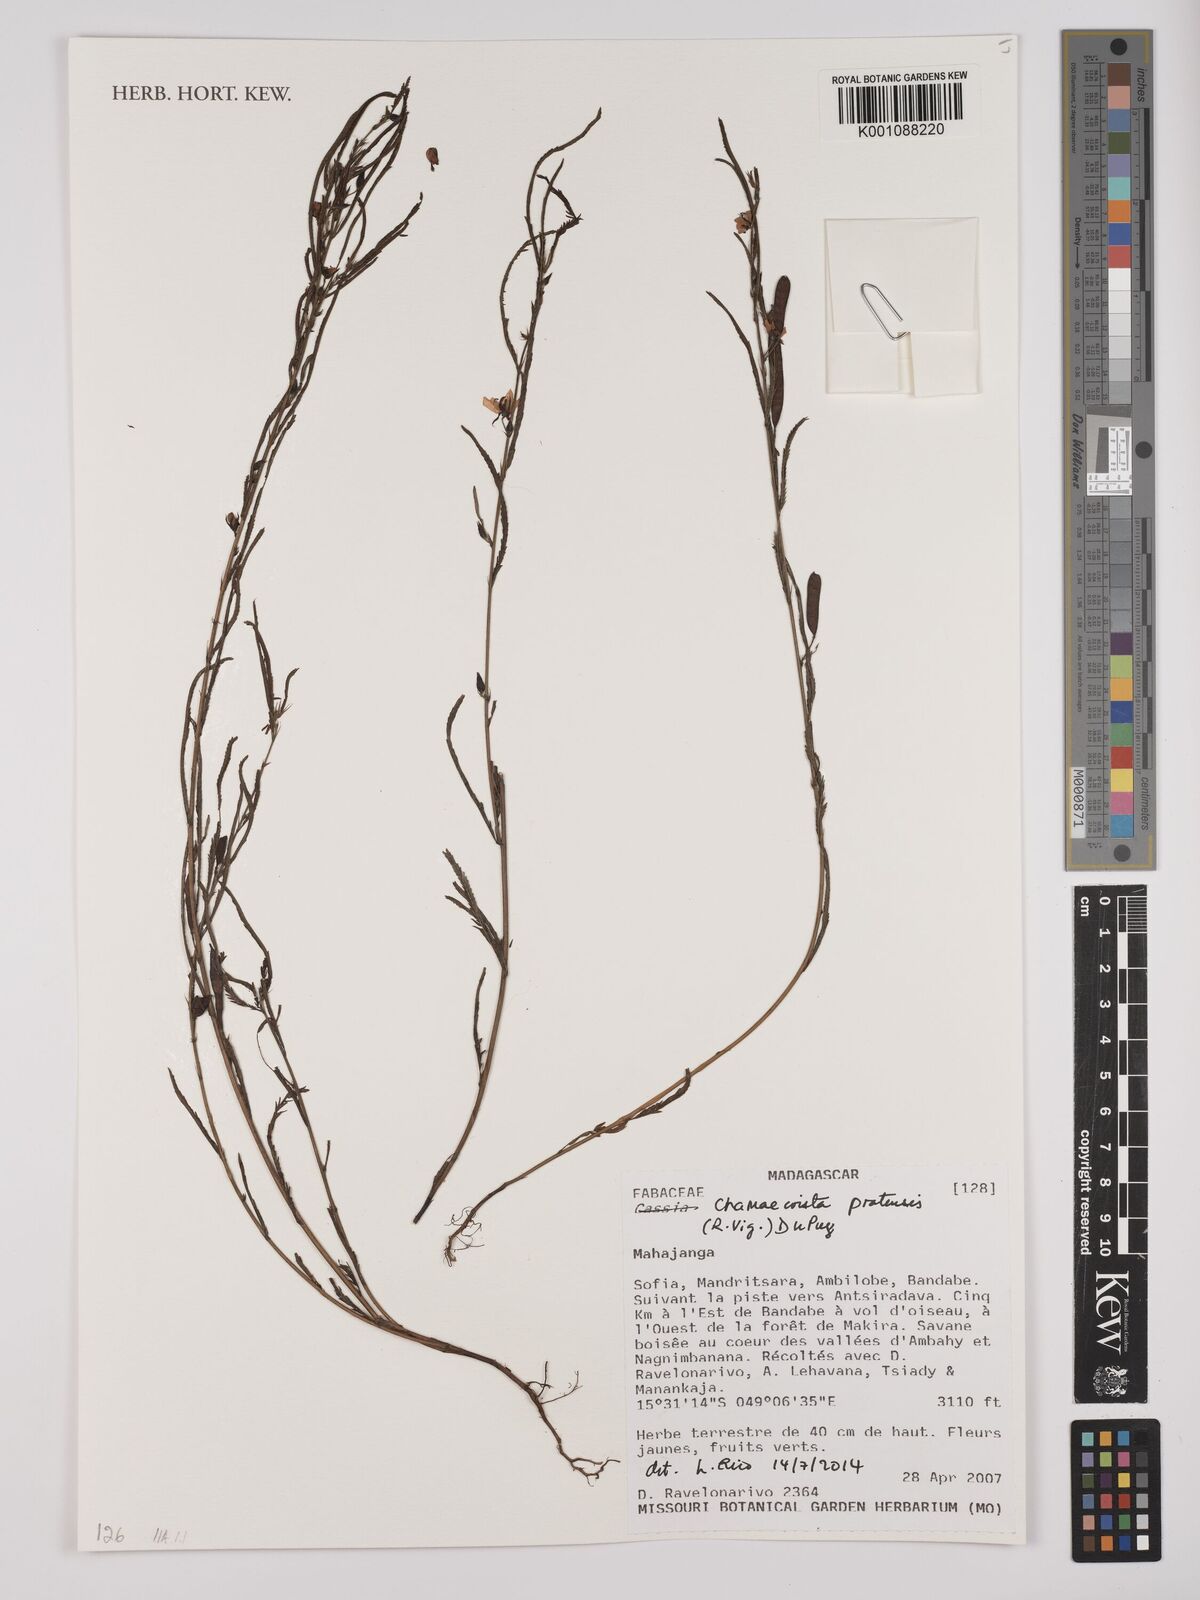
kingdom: Plantae
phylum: Tracheophyta
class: Magnoliopsida
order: Fabales
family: Fabaceae
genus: Chamaecrista
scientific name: Chamaecrista pratensis
